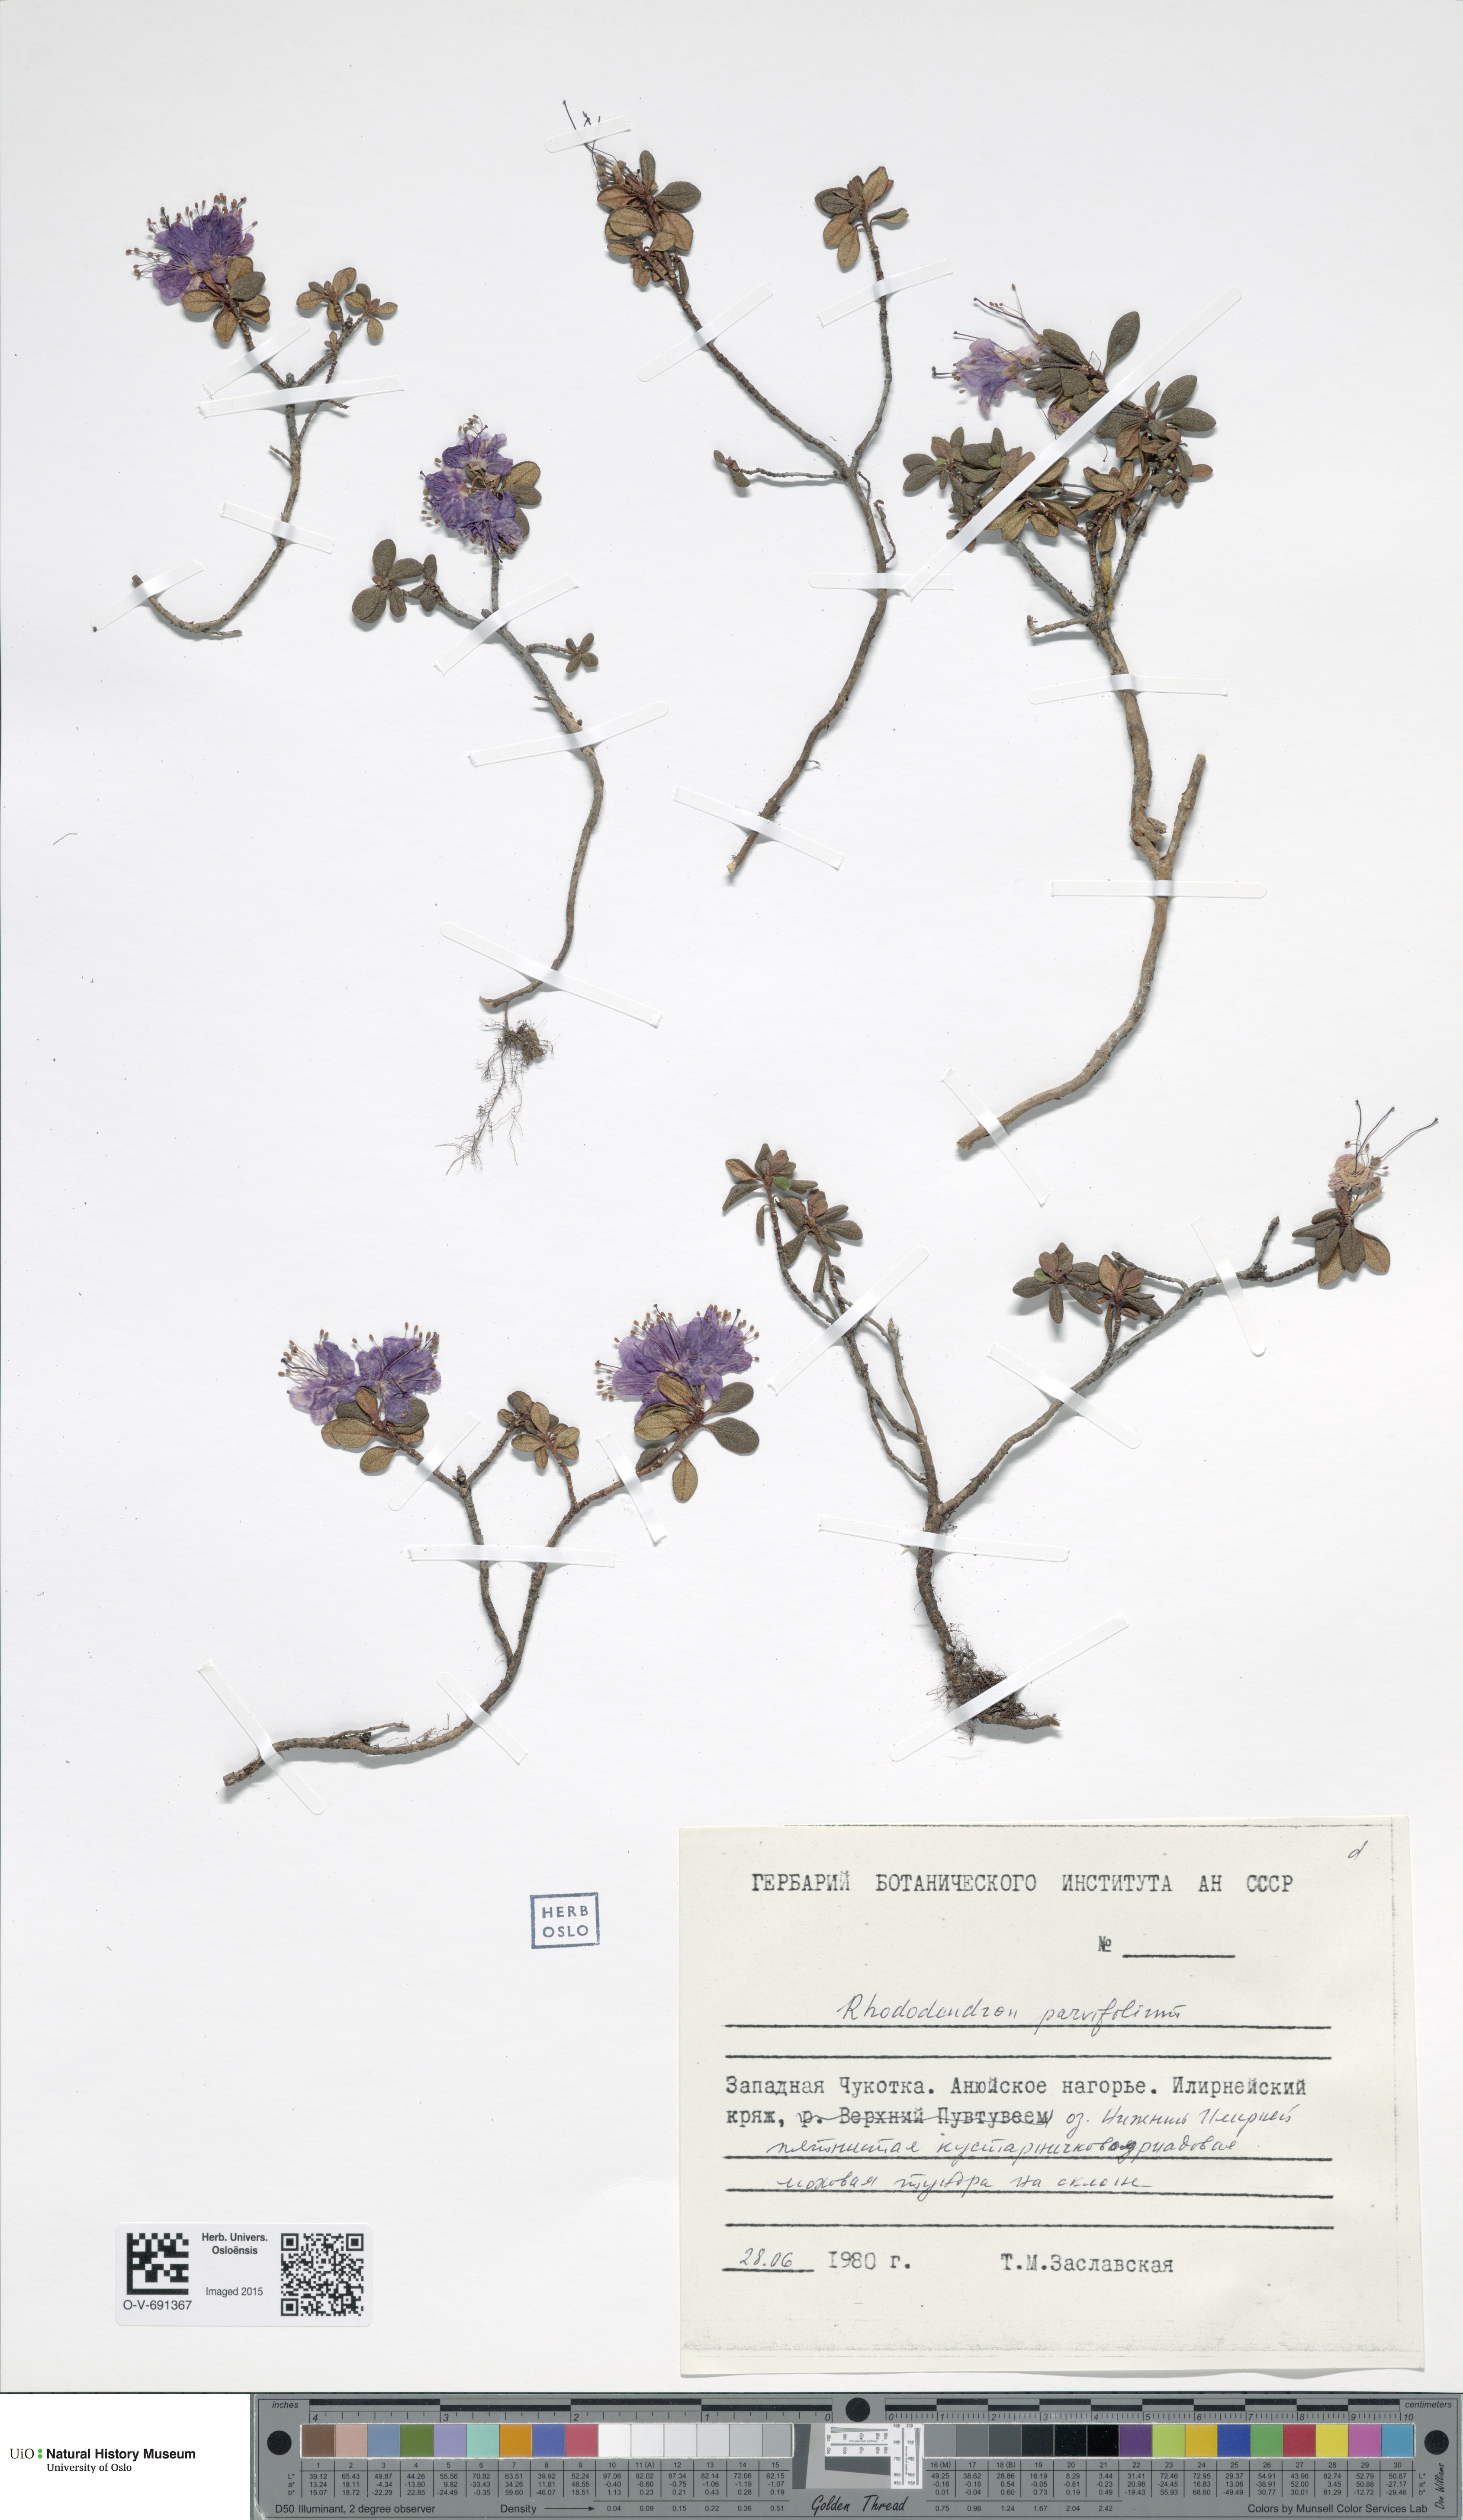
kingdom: Plantae
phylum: Tracheophyta
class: Magnoliopsida
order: Ericales
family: Ericaceae
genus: Rhododendron
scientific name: Rhododendron
